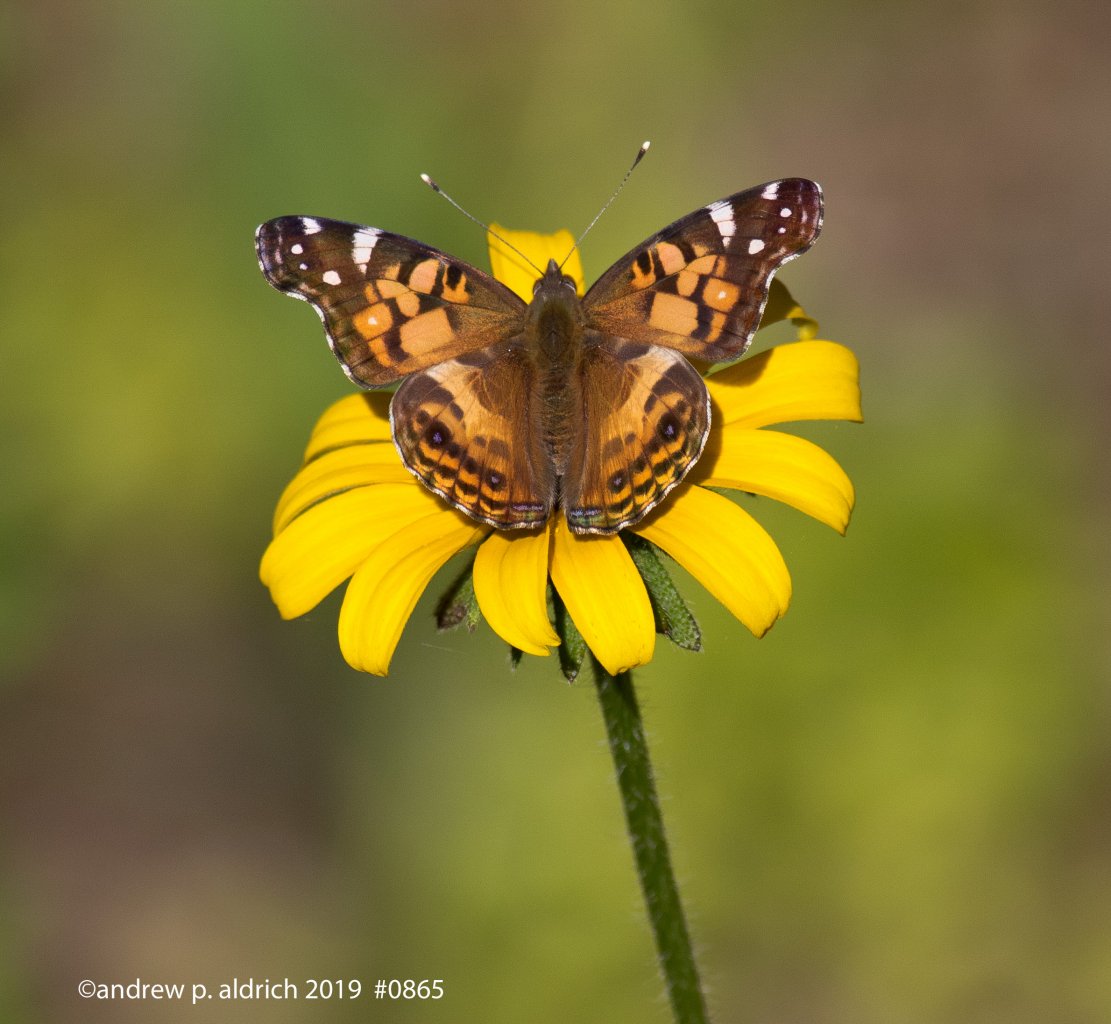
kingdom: Animalia
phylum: Arthropoda
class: Insecta
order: Lepidoptera
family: Nymphalidae
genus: Vanessa
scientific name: Vanessa virginiensis
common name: American Lady
